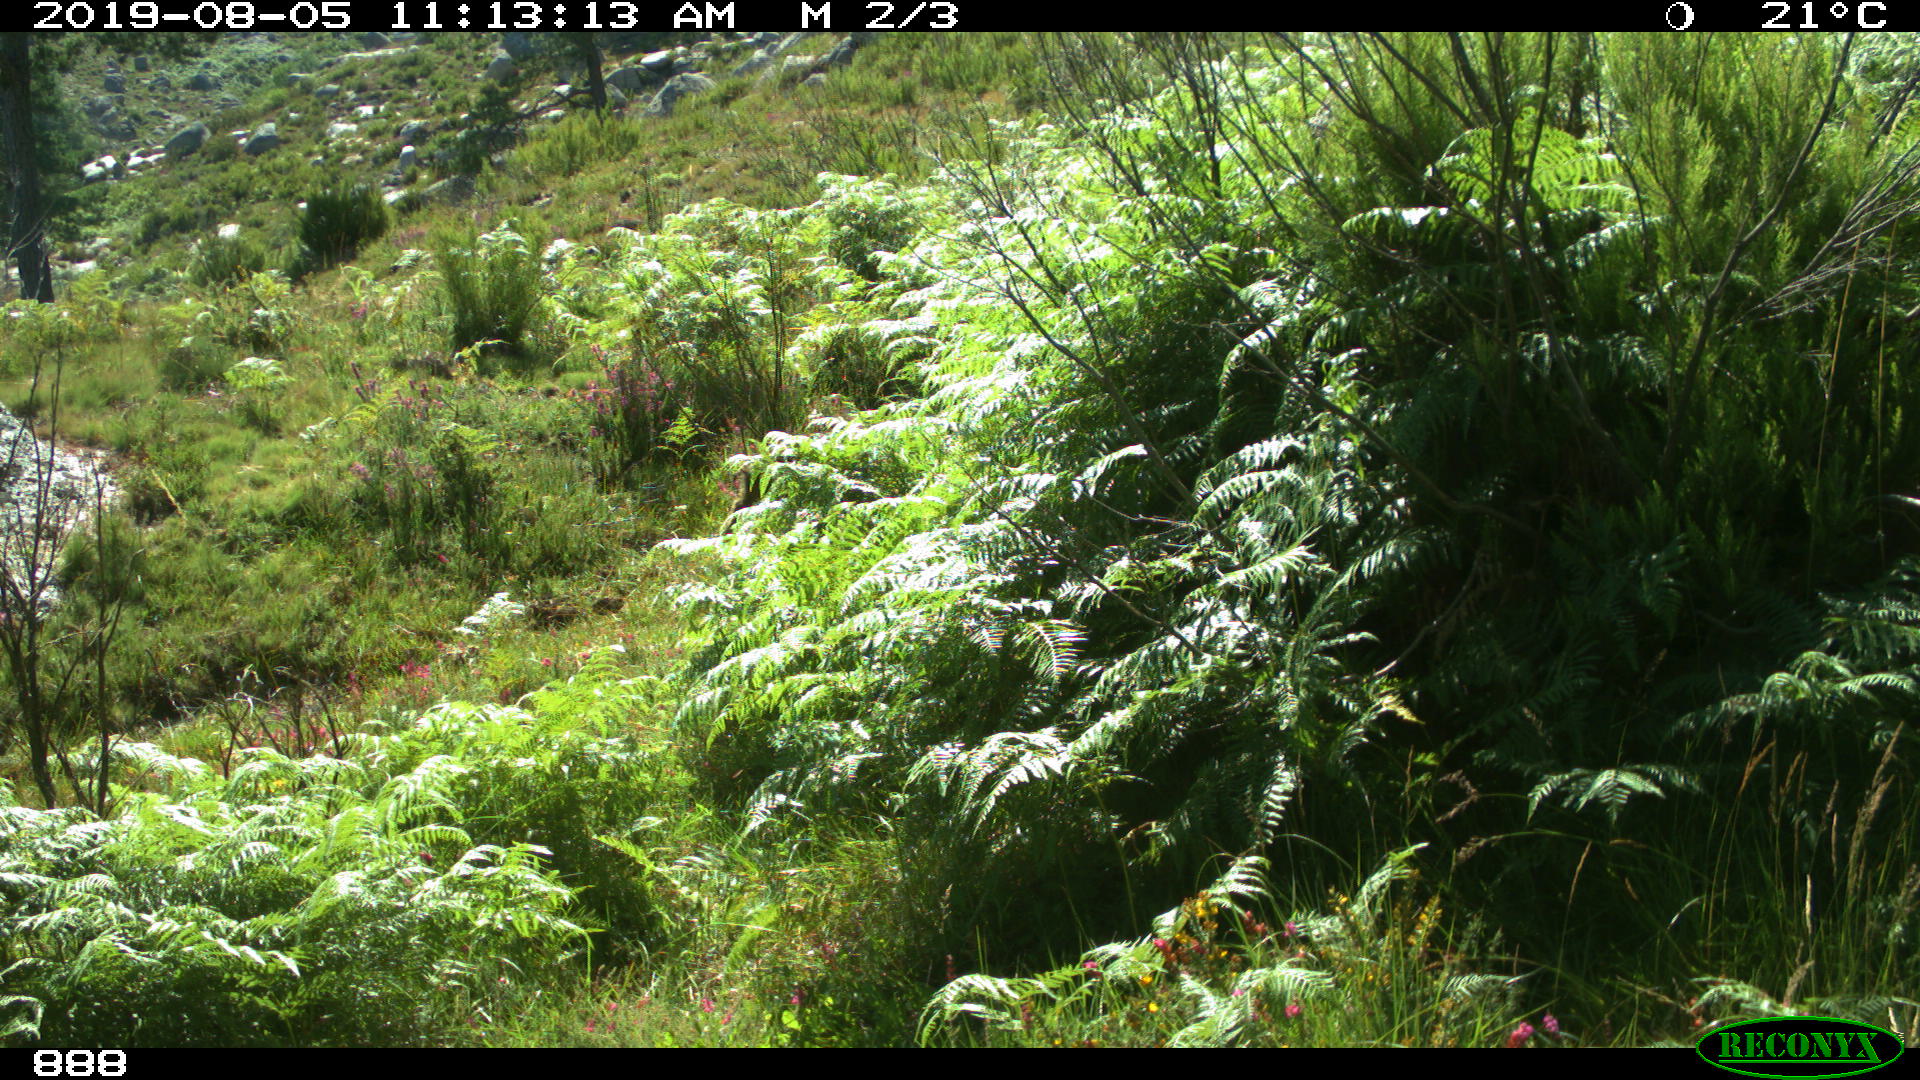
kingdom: Animalia
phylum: Chordata
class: Mammalia
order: Artiodactyla
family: Suidae
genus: Sus
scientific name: Sus scrofa
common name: Wild boar
